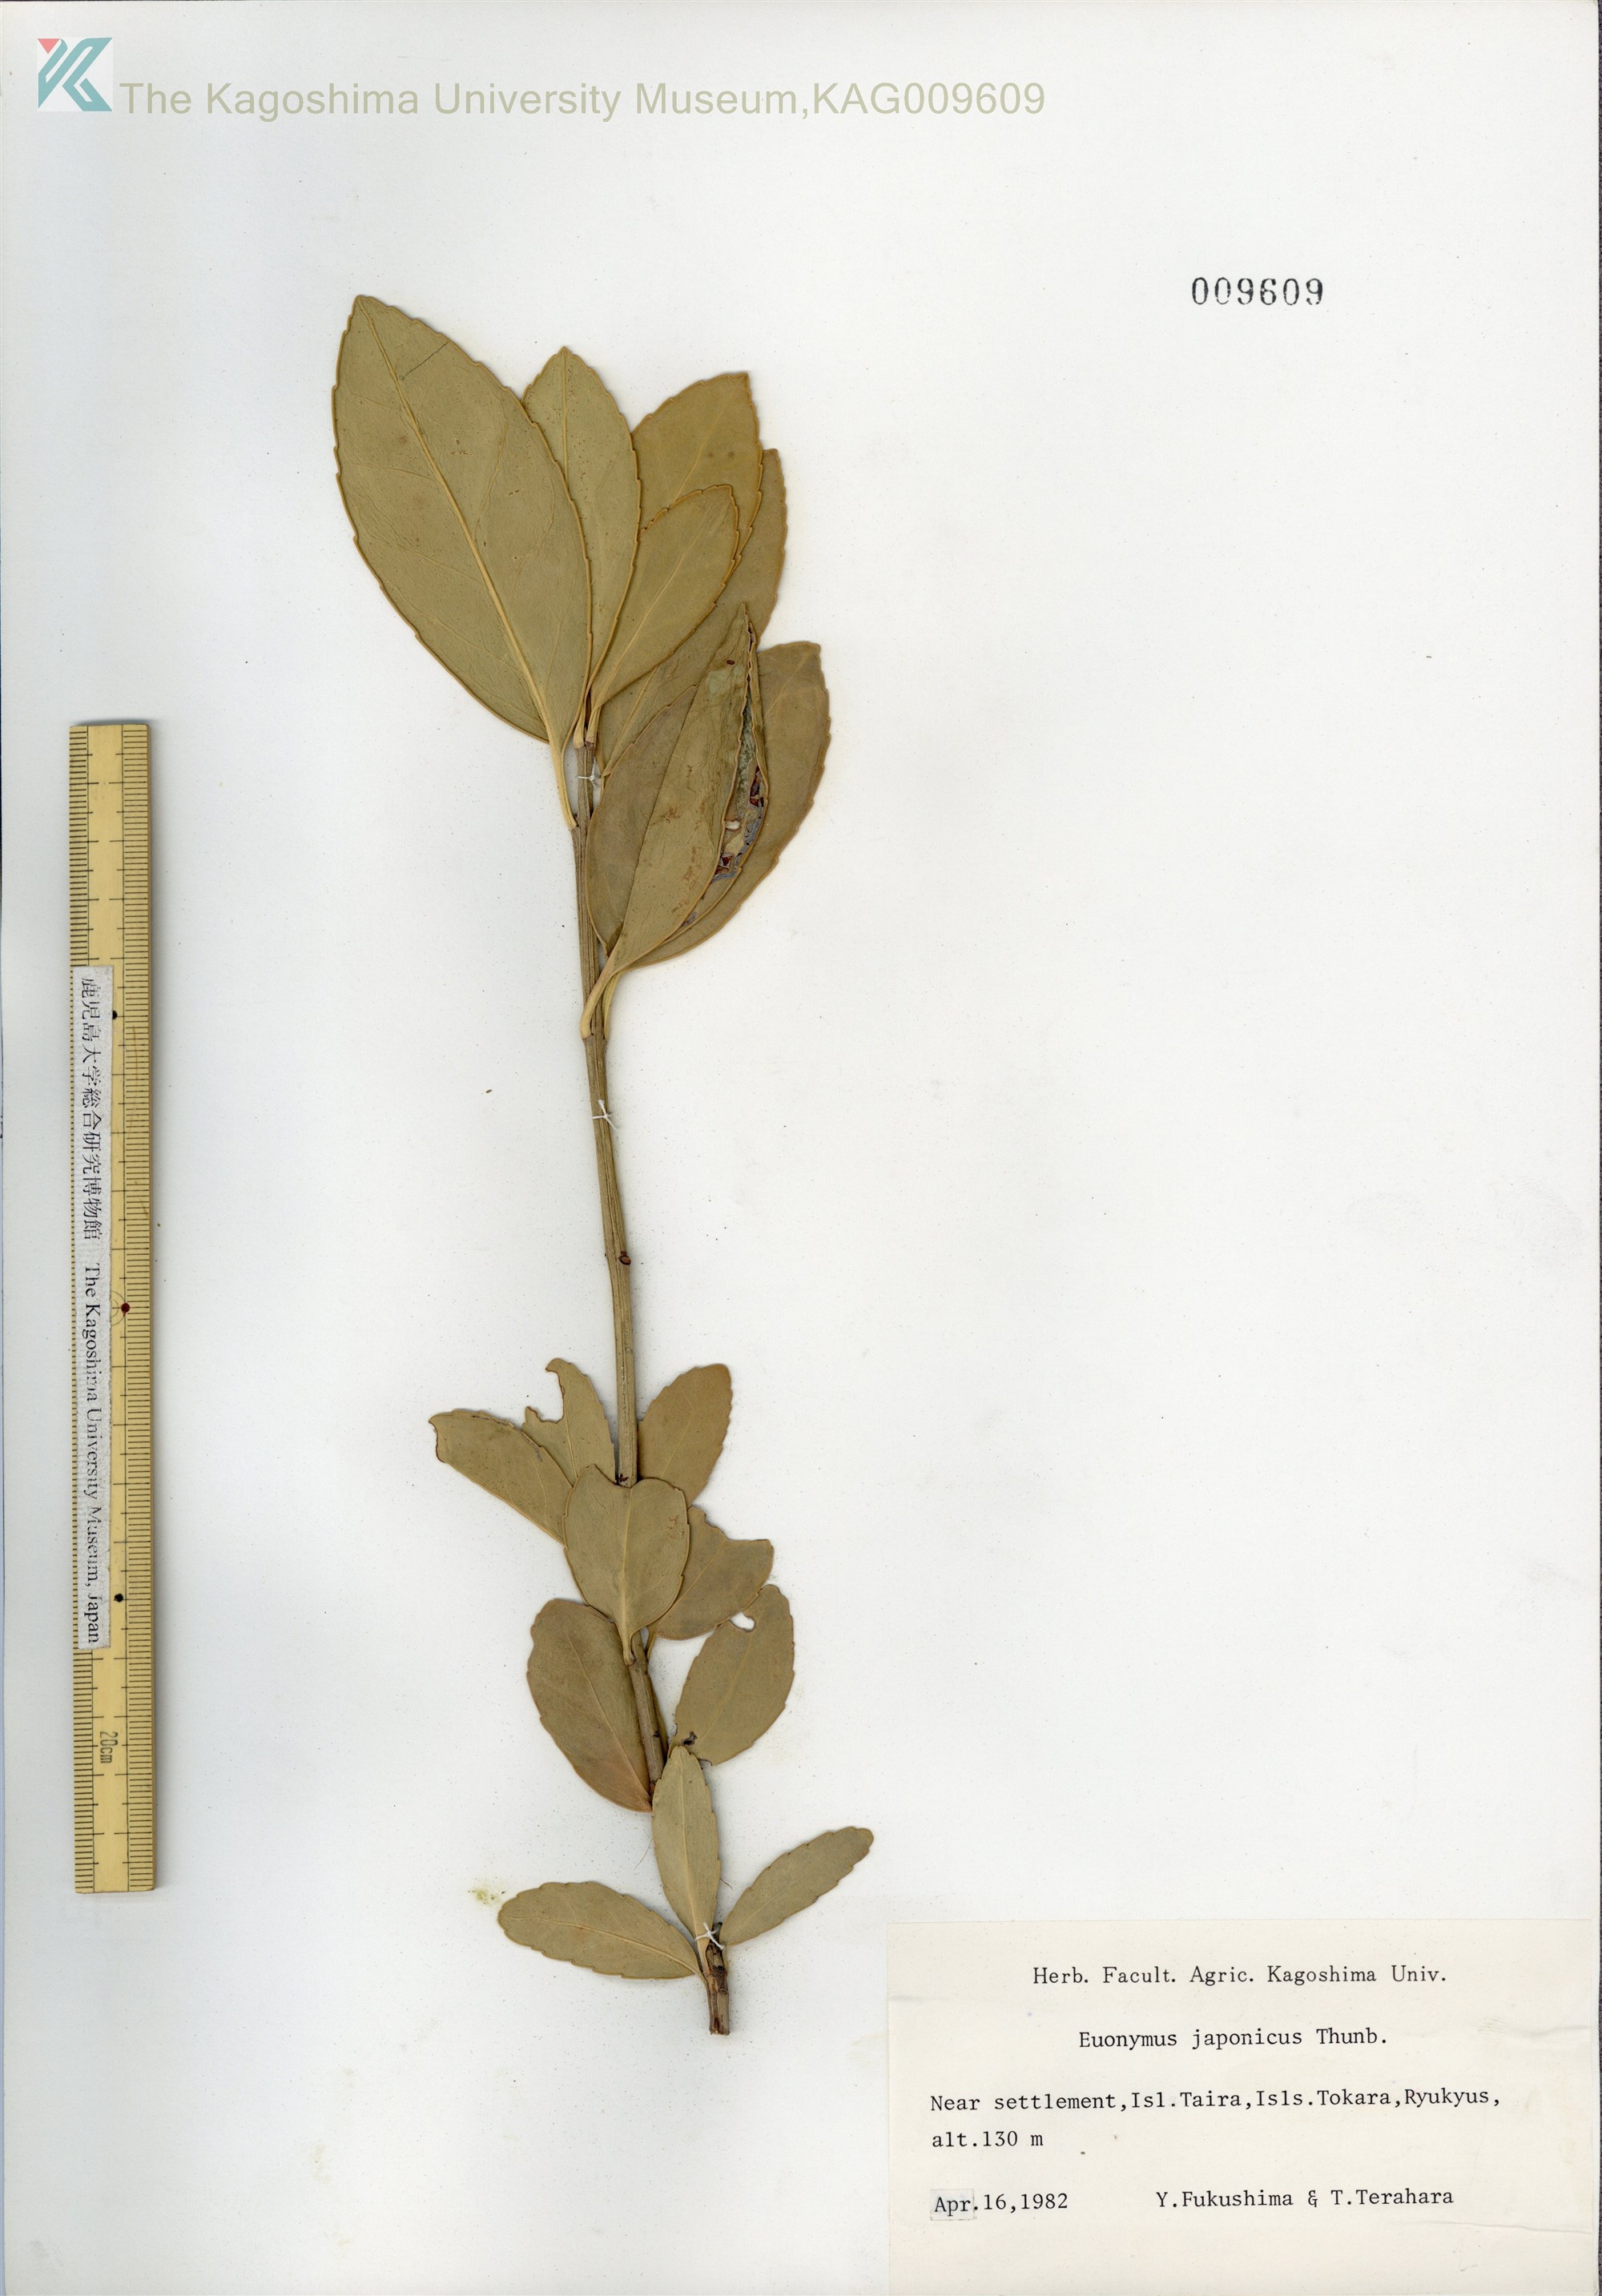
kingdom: Plantae
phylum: Tracheophyta
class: Magnoliopsida
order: Celastrales
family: Celastraceae
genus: Euonymus
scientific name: Euonymus japonicus
